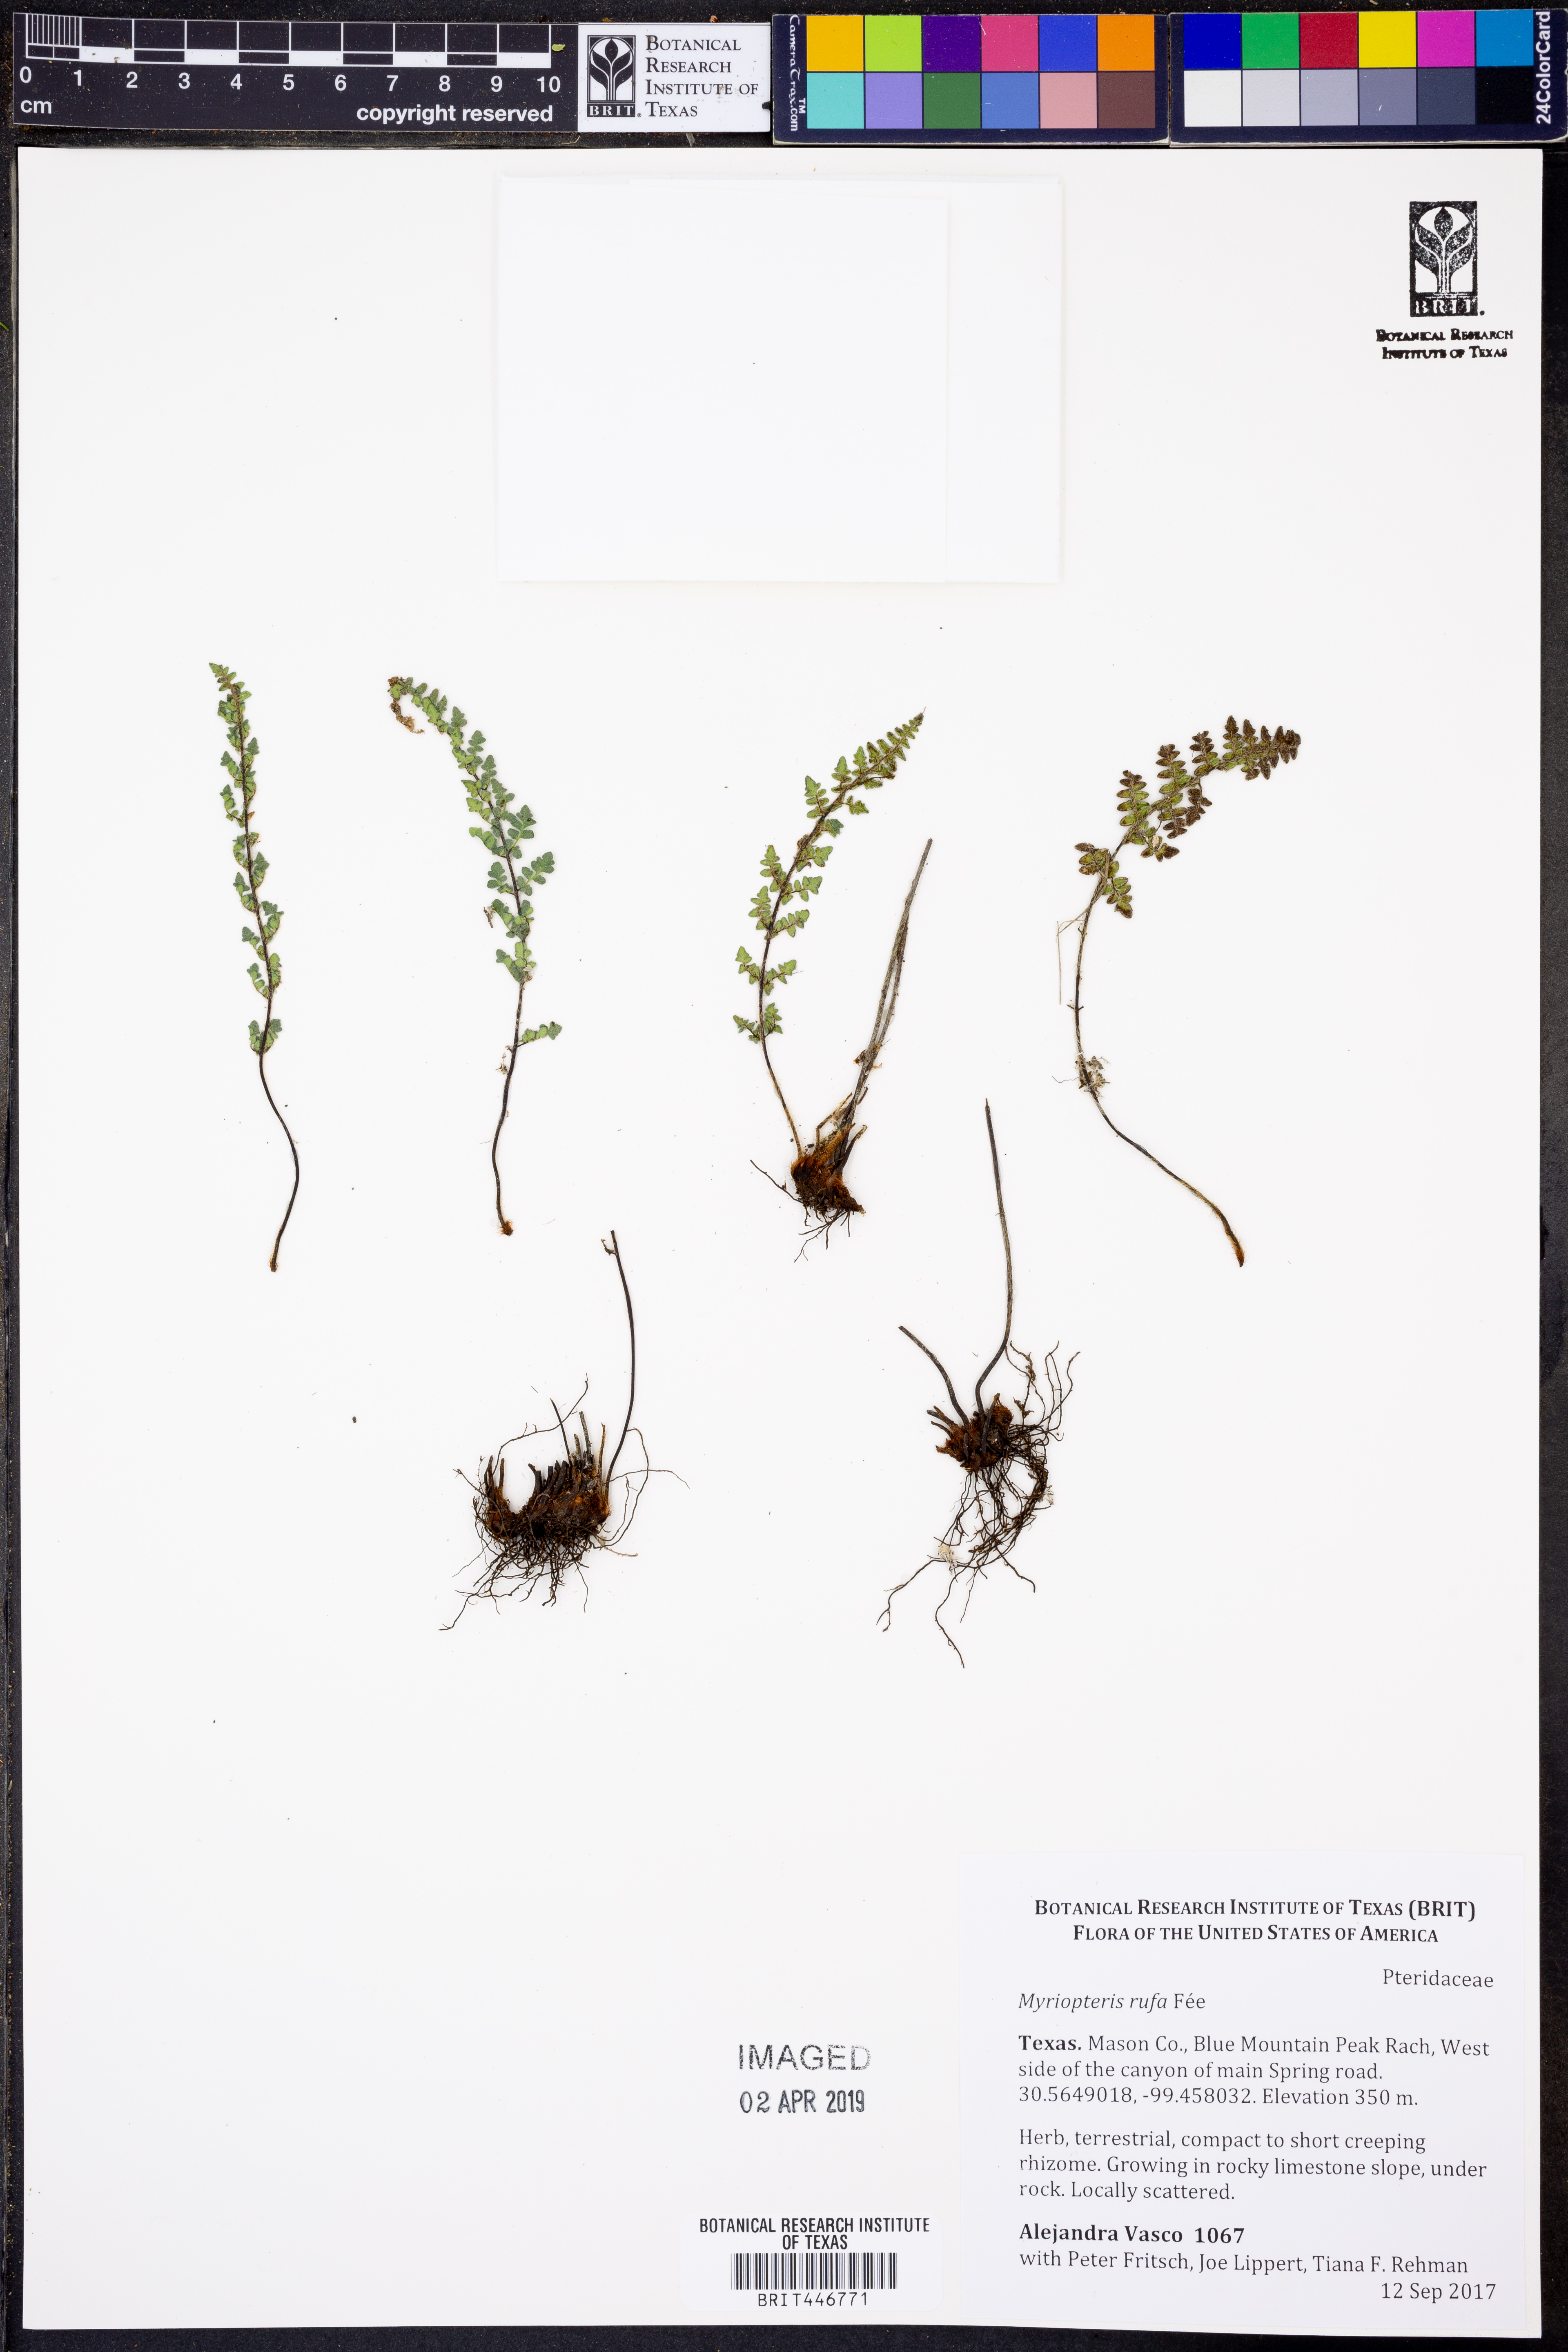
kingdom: Plantae
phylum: Tracheophyta
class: Polypodiopsida
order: Polypodiales
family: Pteridaceae
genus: Myriopteris
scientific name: Myriopteris scabra
